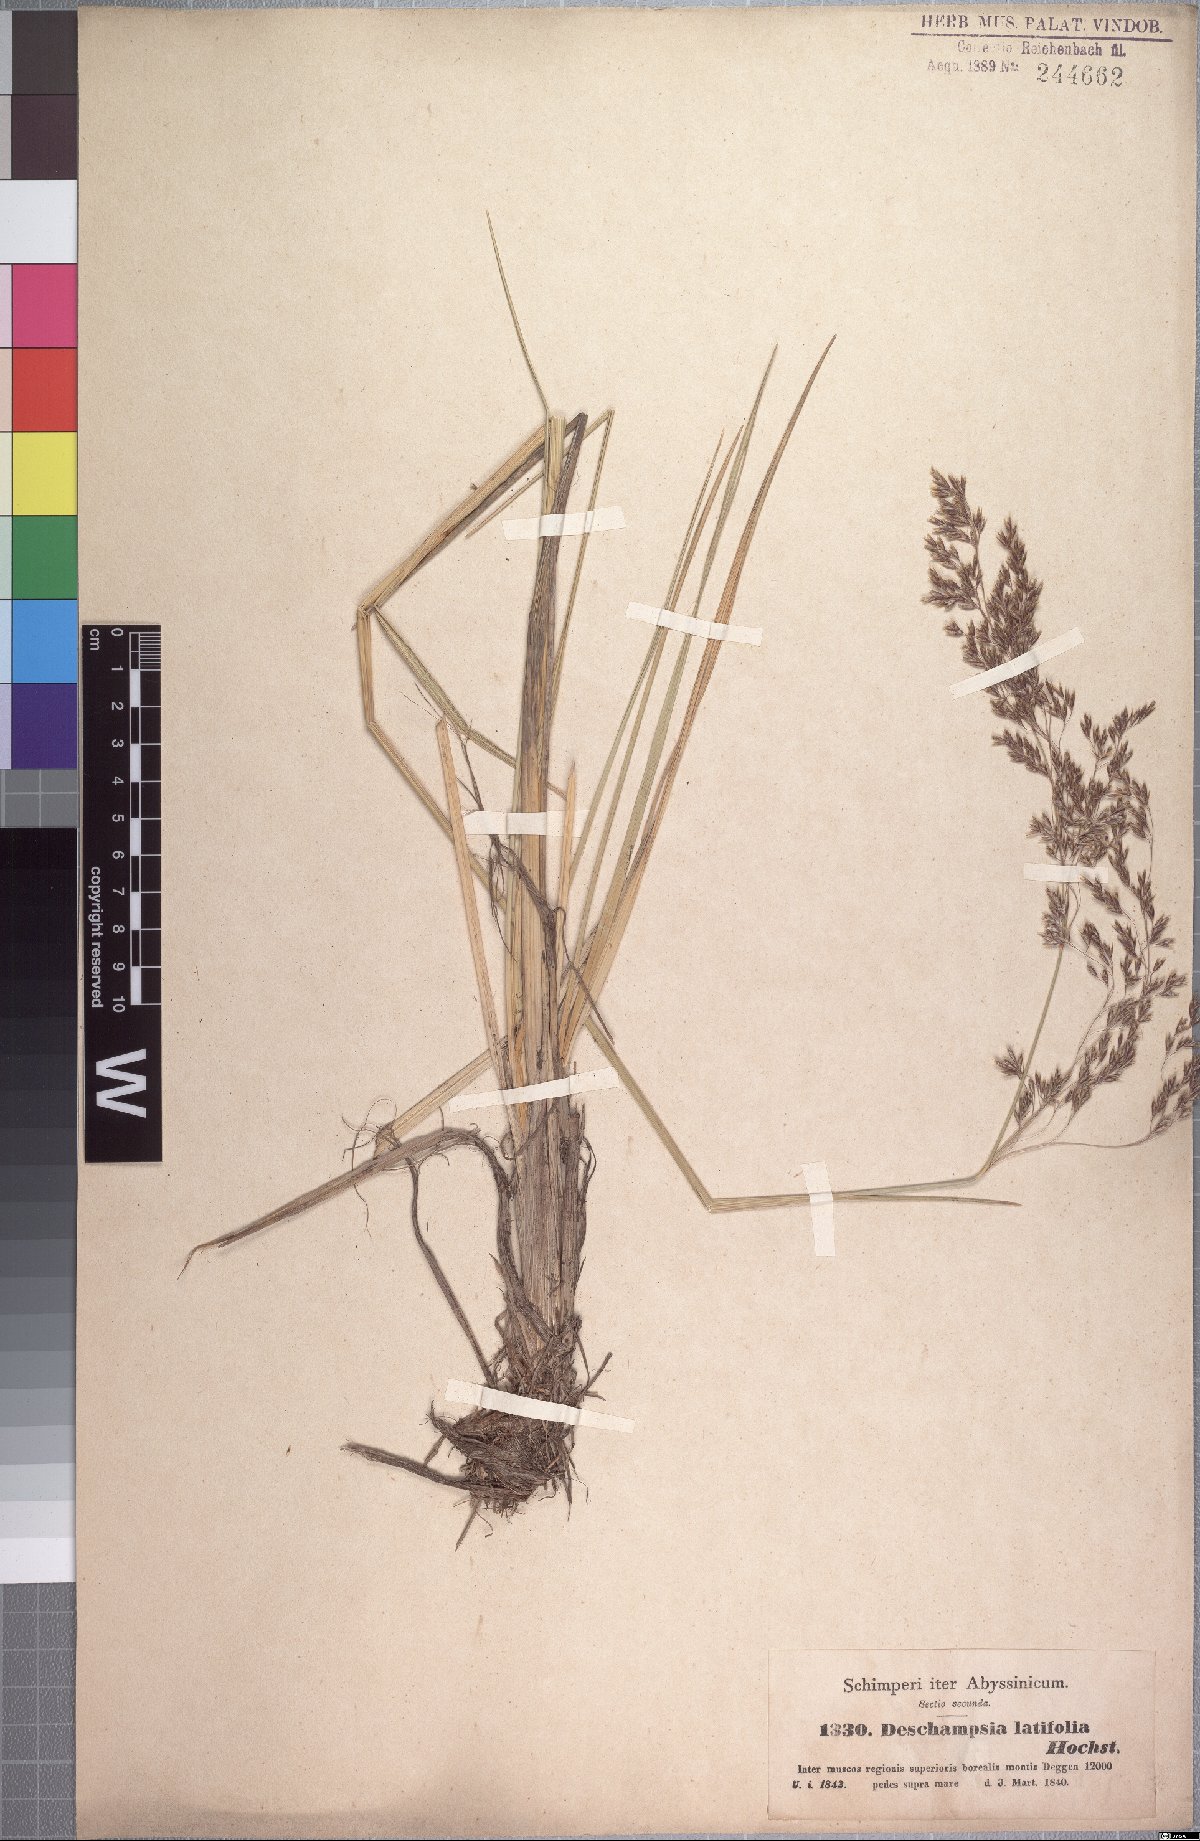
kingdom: Plantae
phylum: Tracheophyta
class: Liliopsida
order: Poales
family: Poaceae
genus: Deschampsia
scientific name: Deschampsia cespitosa
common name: Tufted hair-grass
